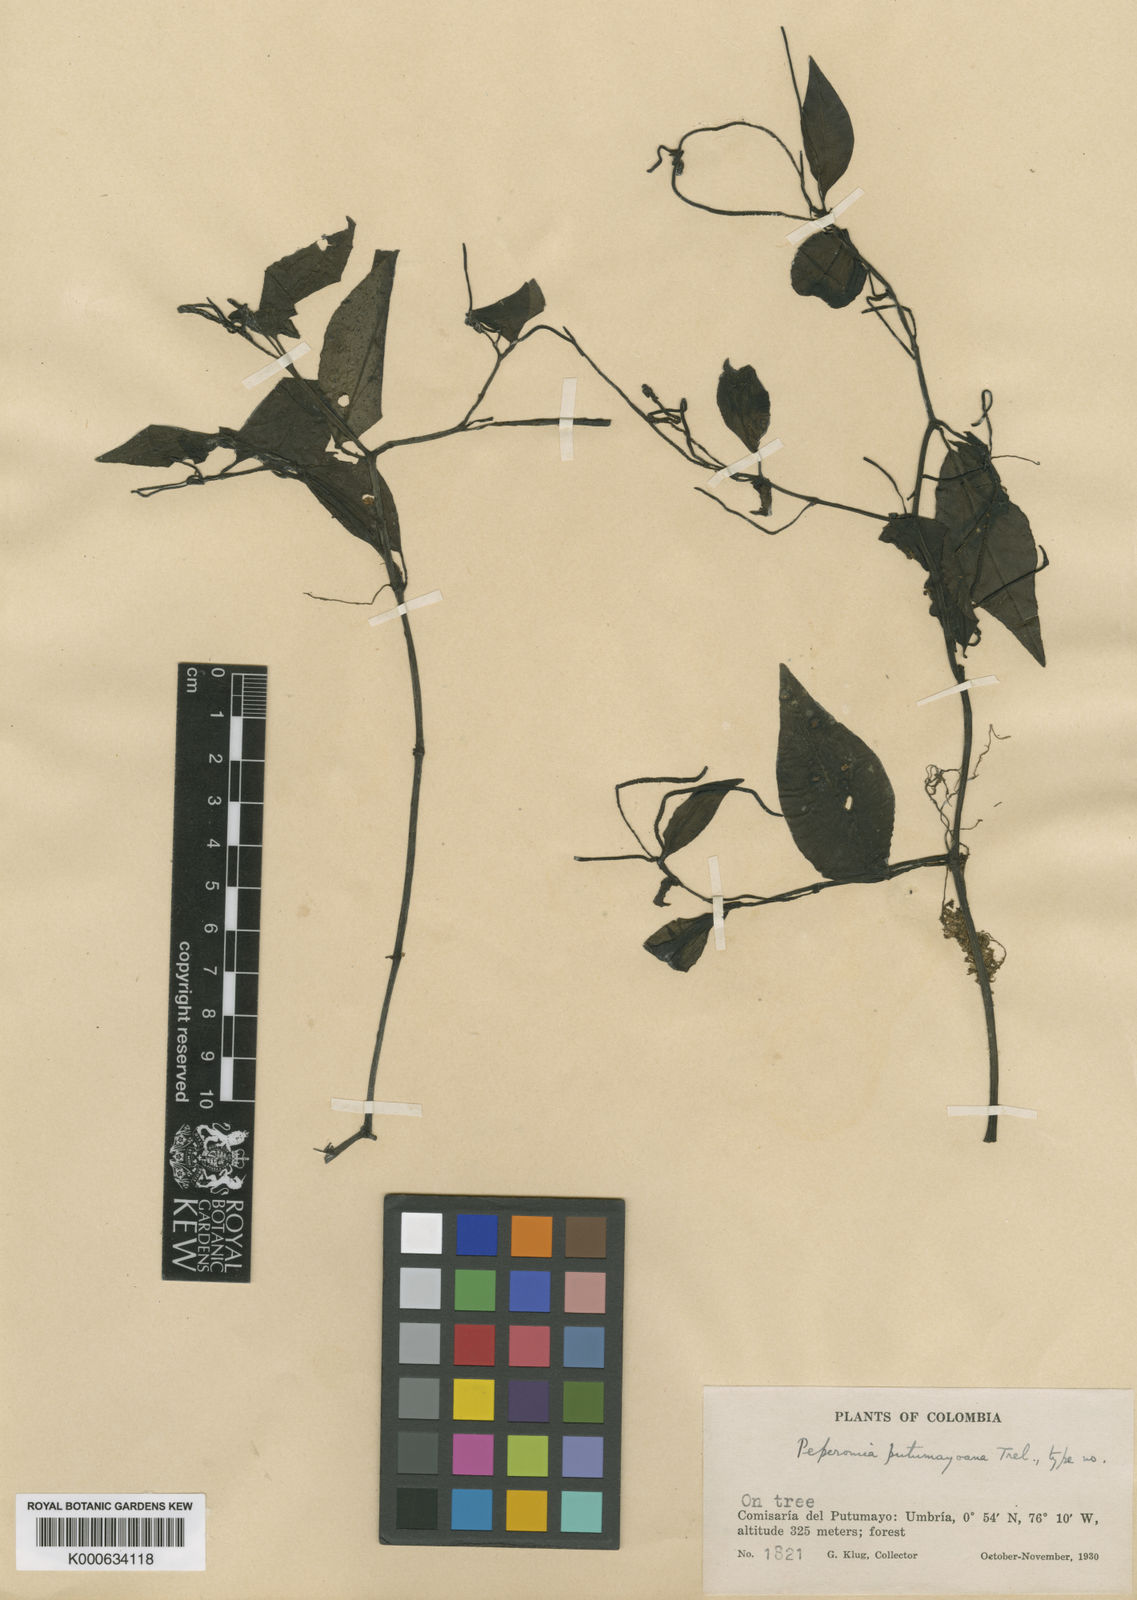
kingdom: Plantae
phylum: Tracheophyta
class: Magnoliopsida
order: Piperales
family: Piperaceae
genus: Peperomia
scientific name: Peperomia putumayoensis
